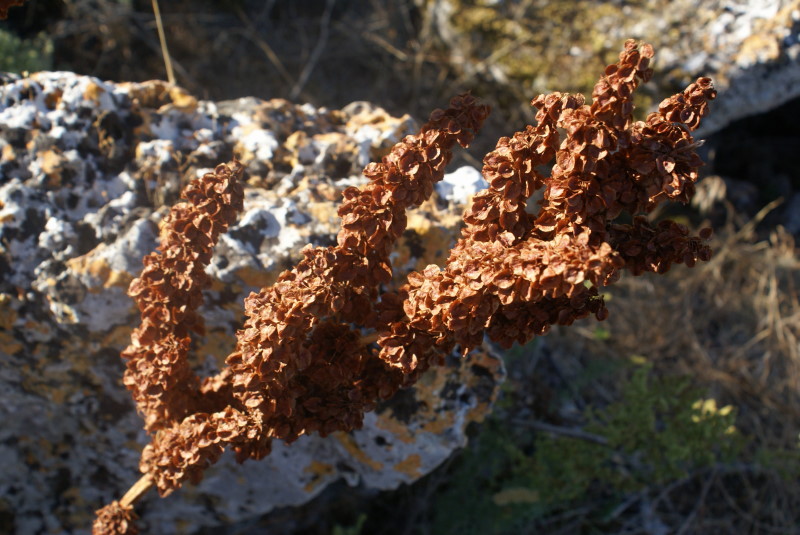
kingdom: Plantae
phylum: Tracheophyta
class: Magnoliopsida
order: Caryophyllales
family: Polygonaceae
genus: Rumex
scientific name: Rumex
